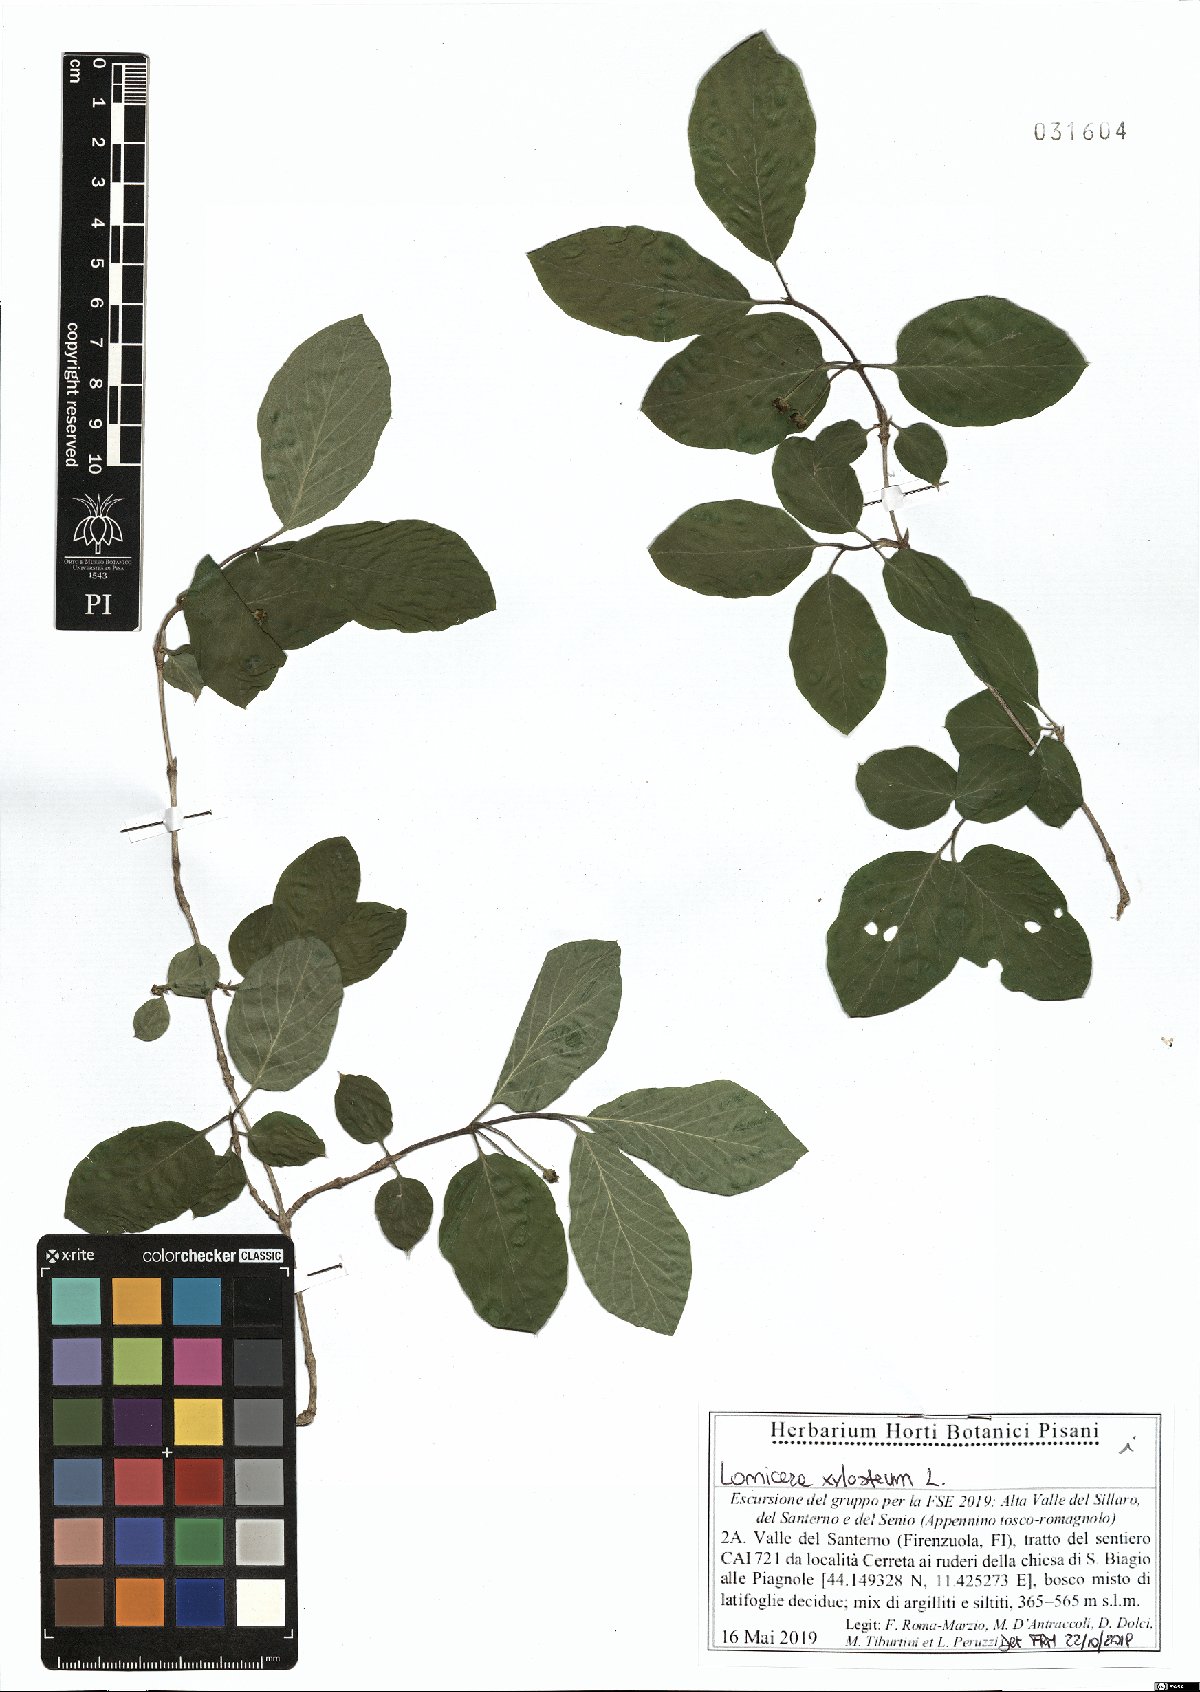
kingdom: Plantae
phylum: Tracheophyta
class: Magnoliopsida
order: Dipsacales
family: Caprifoliaceae
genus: Lonicera
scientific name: Lonicera xylosteum
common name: Fly honeysuckle
